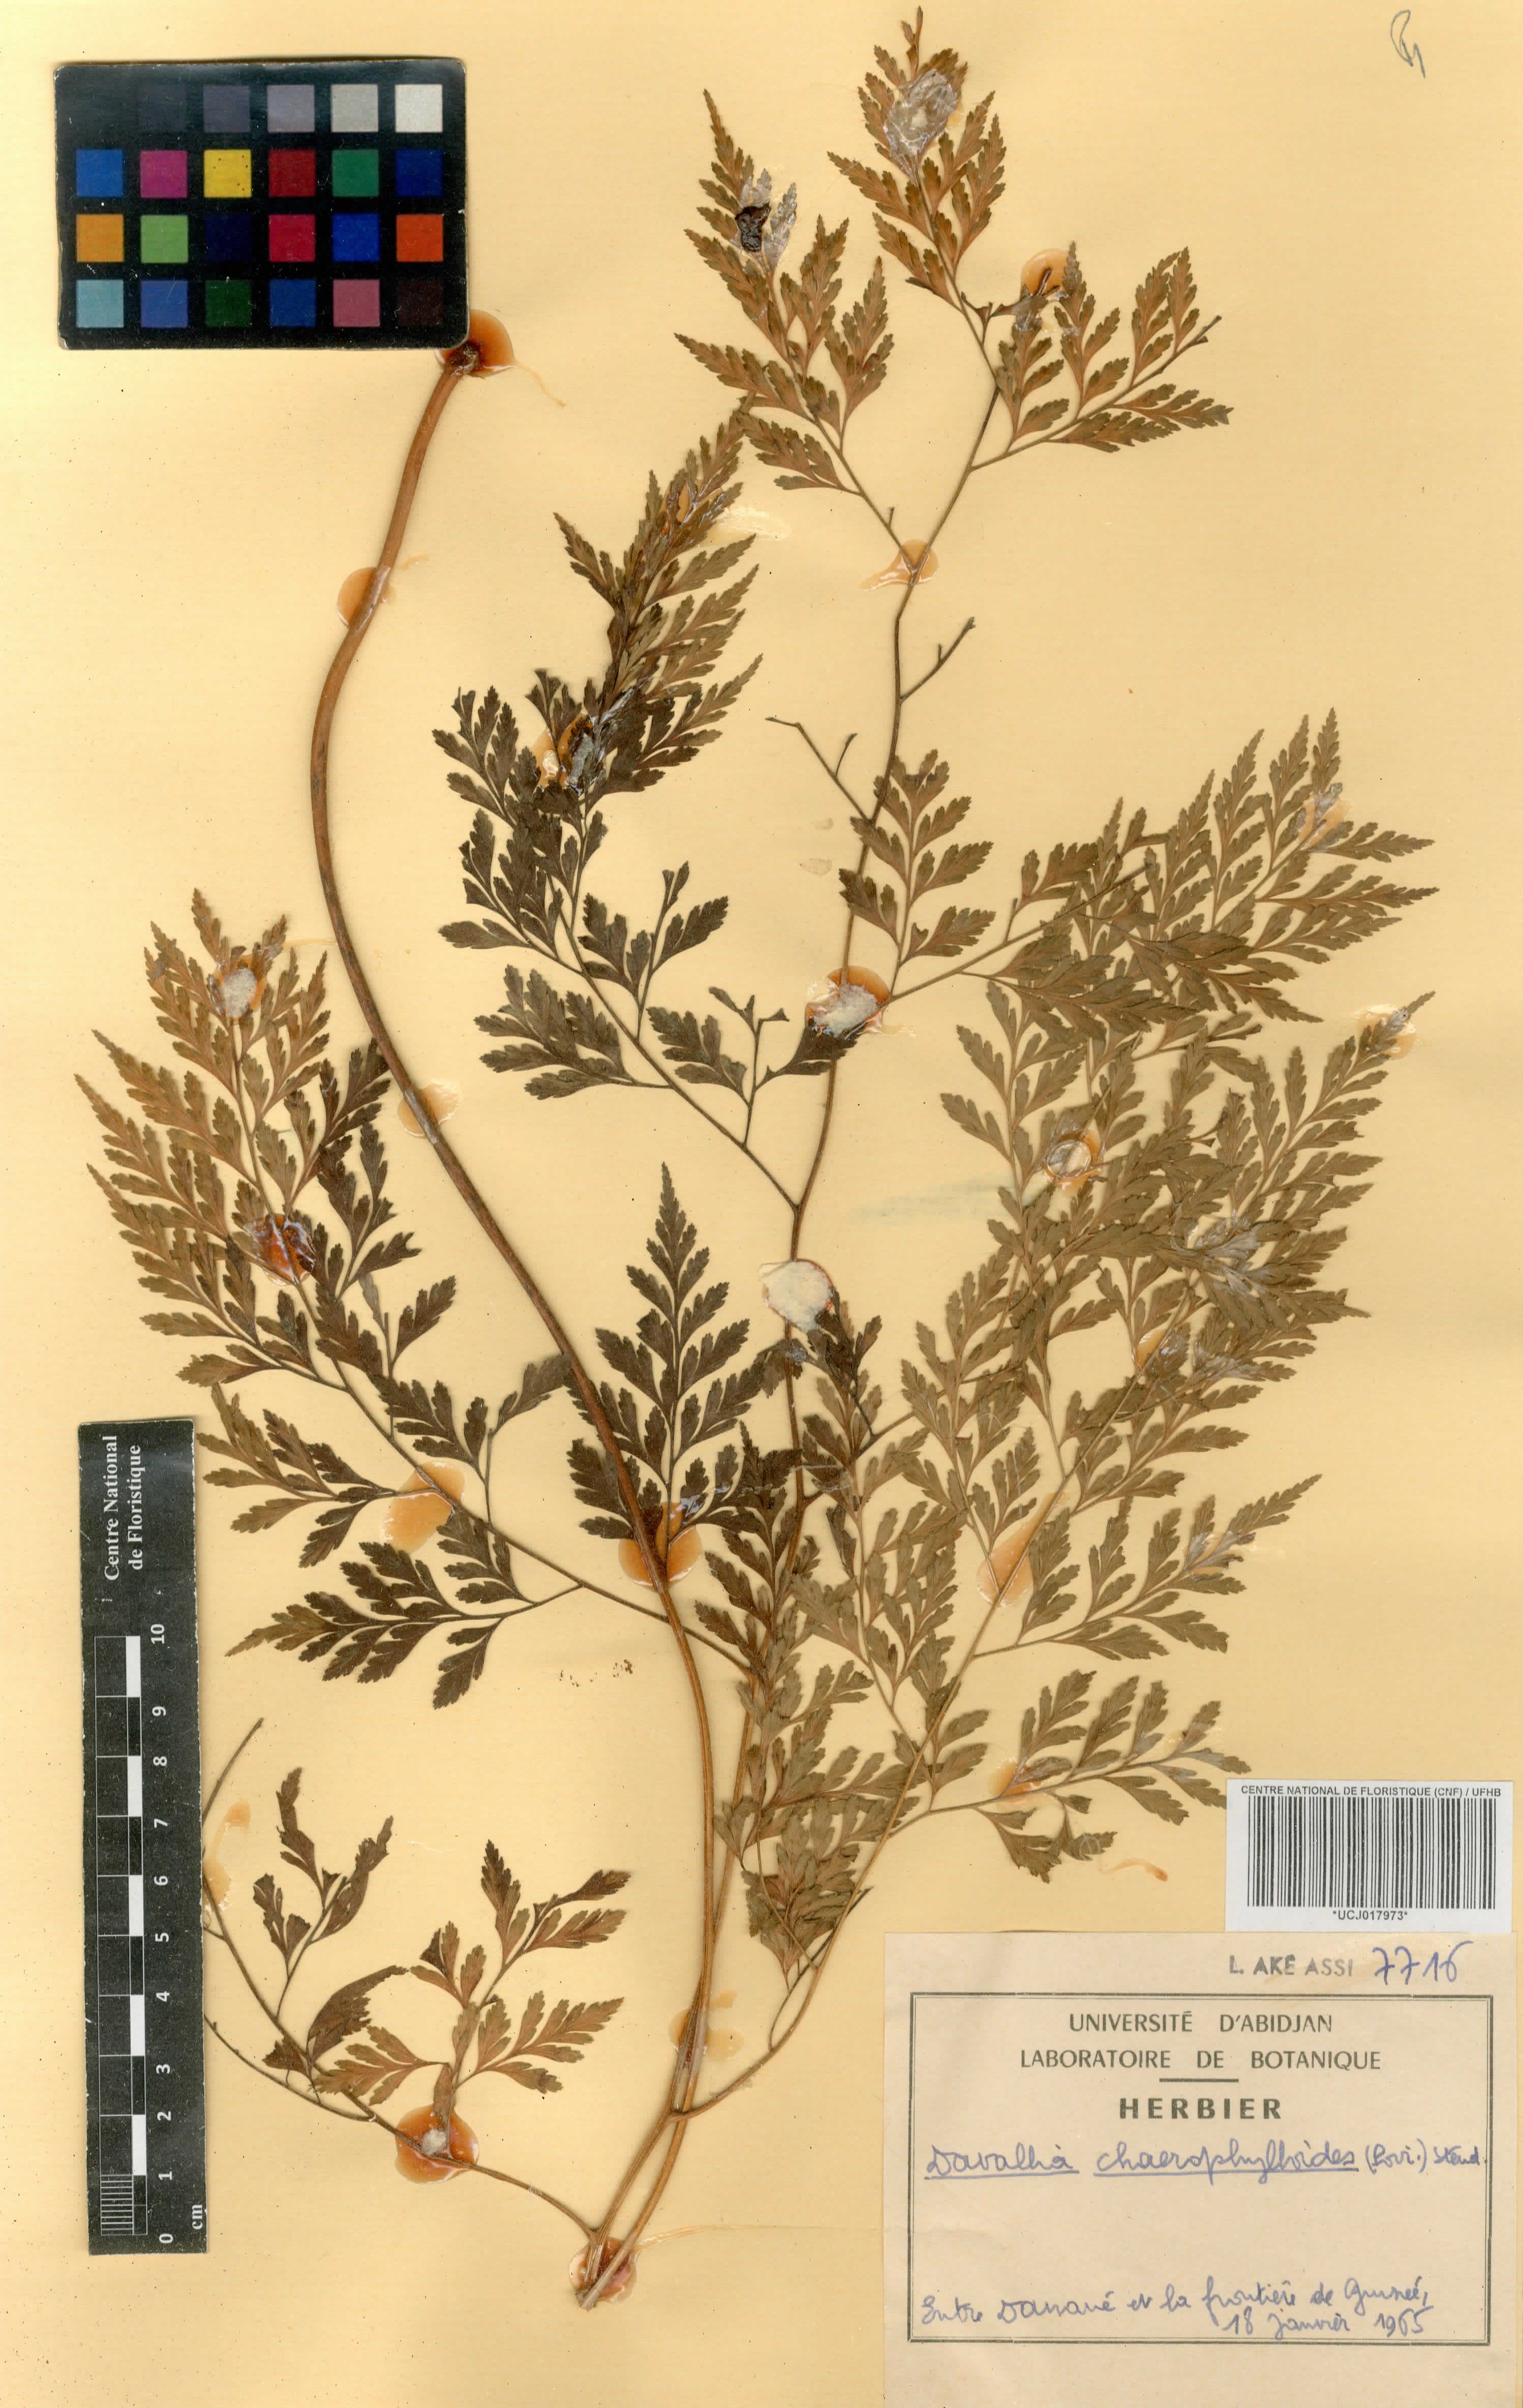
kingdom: Plantae
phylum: Tracheophyta
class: Polypodiopsida
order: Polypodiales
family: Davalliaceae
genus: Davallia
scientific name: Davallia chaerophylloides
